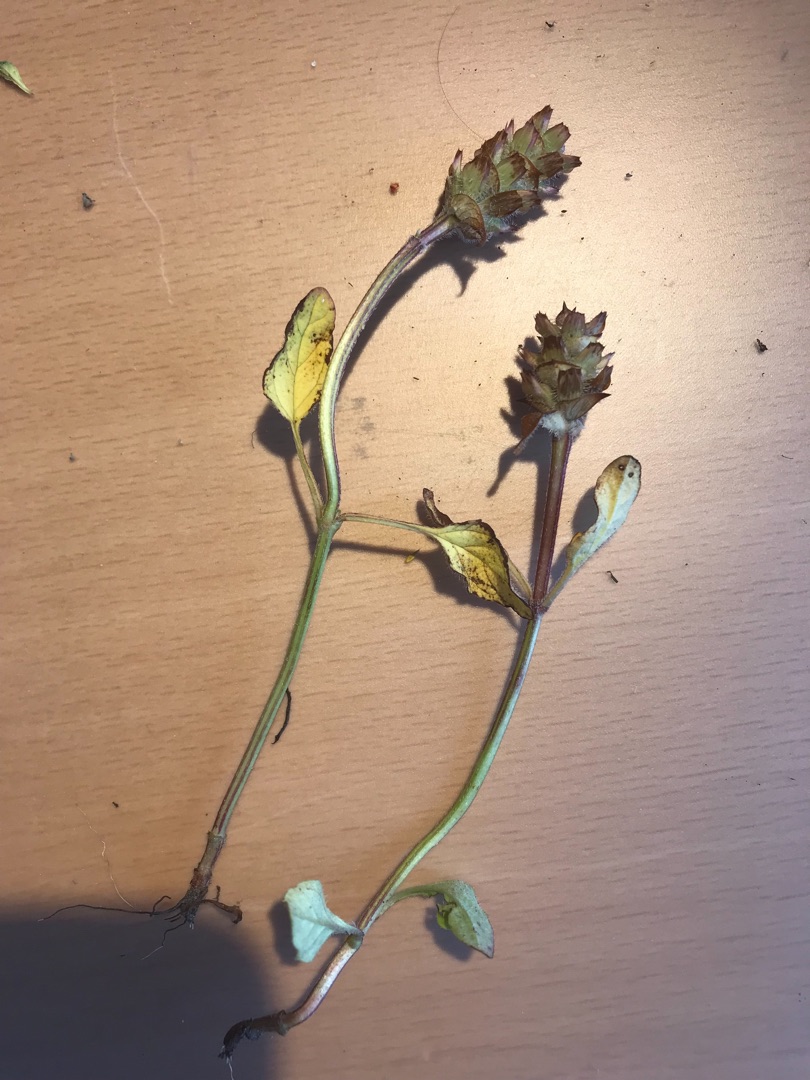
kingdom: Plantae
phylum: Tracheophyta
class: Magnoliopsida
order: Lamiales
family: Lamiaceae
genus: Prunella
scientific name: Prunella vulgaris
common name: Almindelig brunelle
